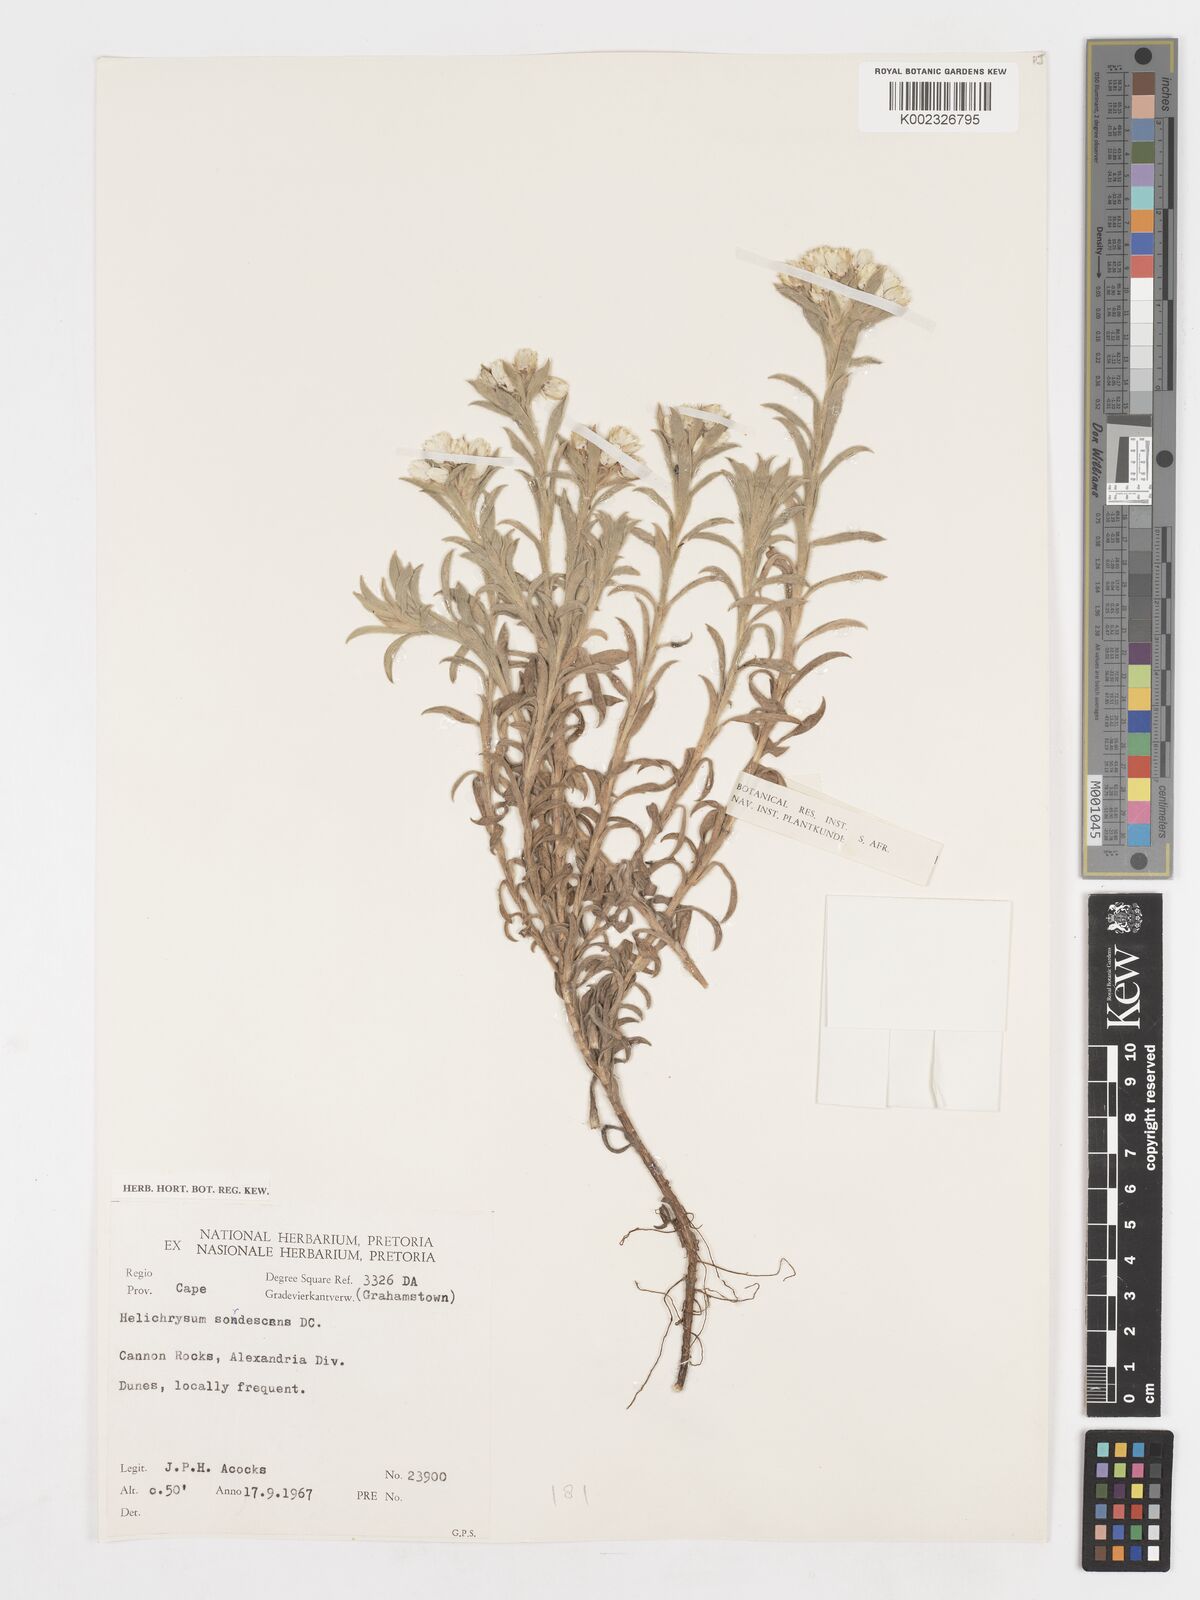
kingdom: Plantae
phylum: Tracheophyta
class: Magnoliopsida
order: Asterales
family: Asteraceae
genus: Achyranthemum
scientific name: Achyranthemum sordescens
